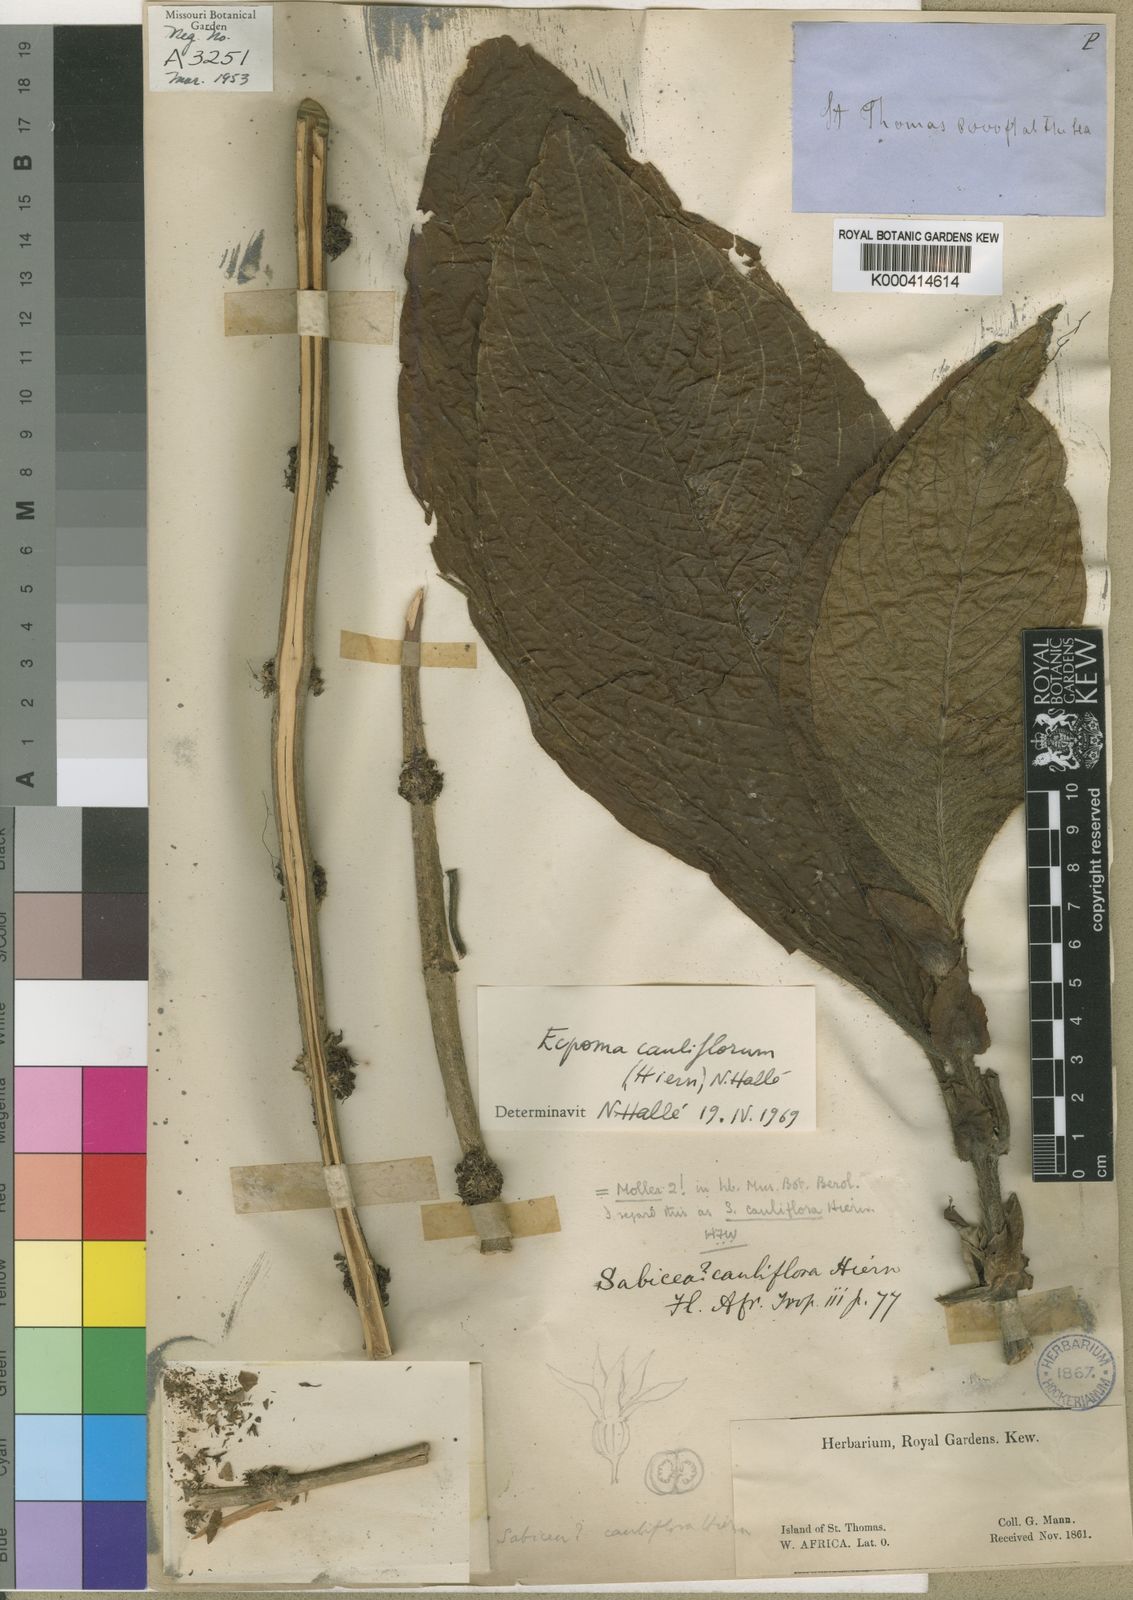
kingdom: Plantae
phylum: Tracheophyta
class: Magnoliopsida
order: Gentianales
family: Rubiaceae
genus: Sabicea
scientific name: Sabicea cauliflora
